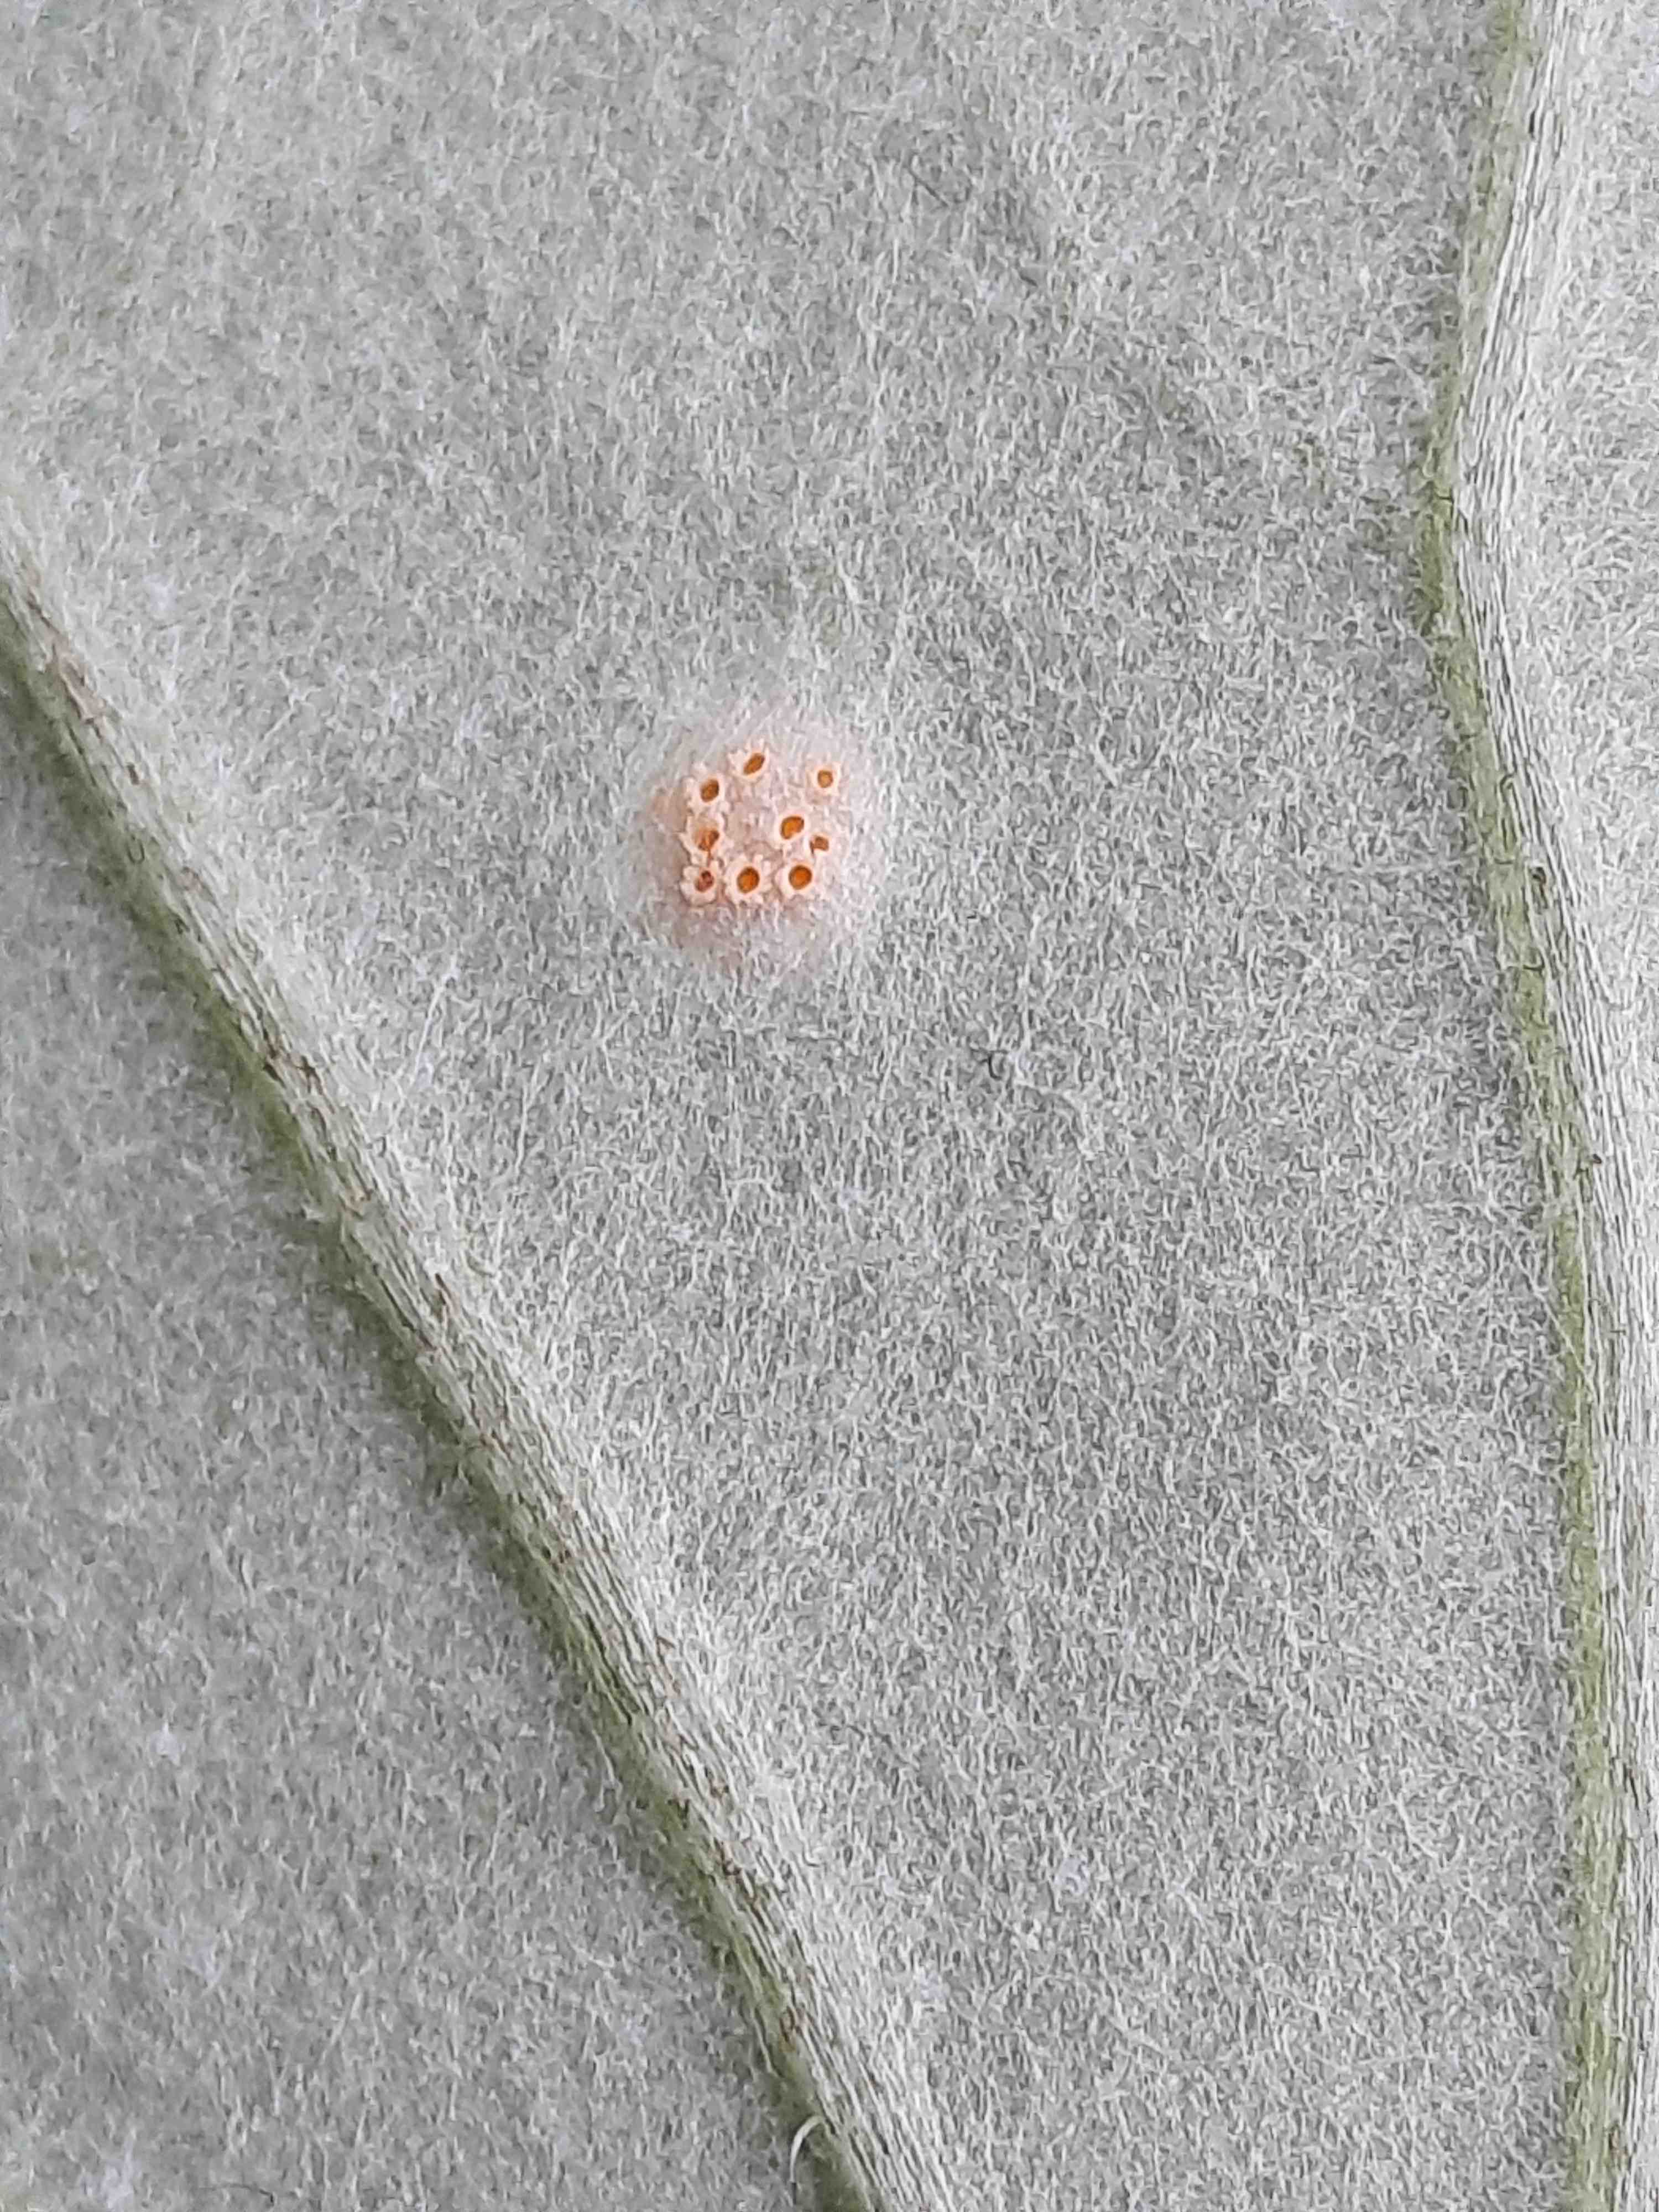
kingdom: Fungi
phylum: Basidiomycota
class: Pucciniomycetes
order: Pucciniales
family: Pucciniaceae
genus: Puccinia
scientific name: Puccinia poarum
